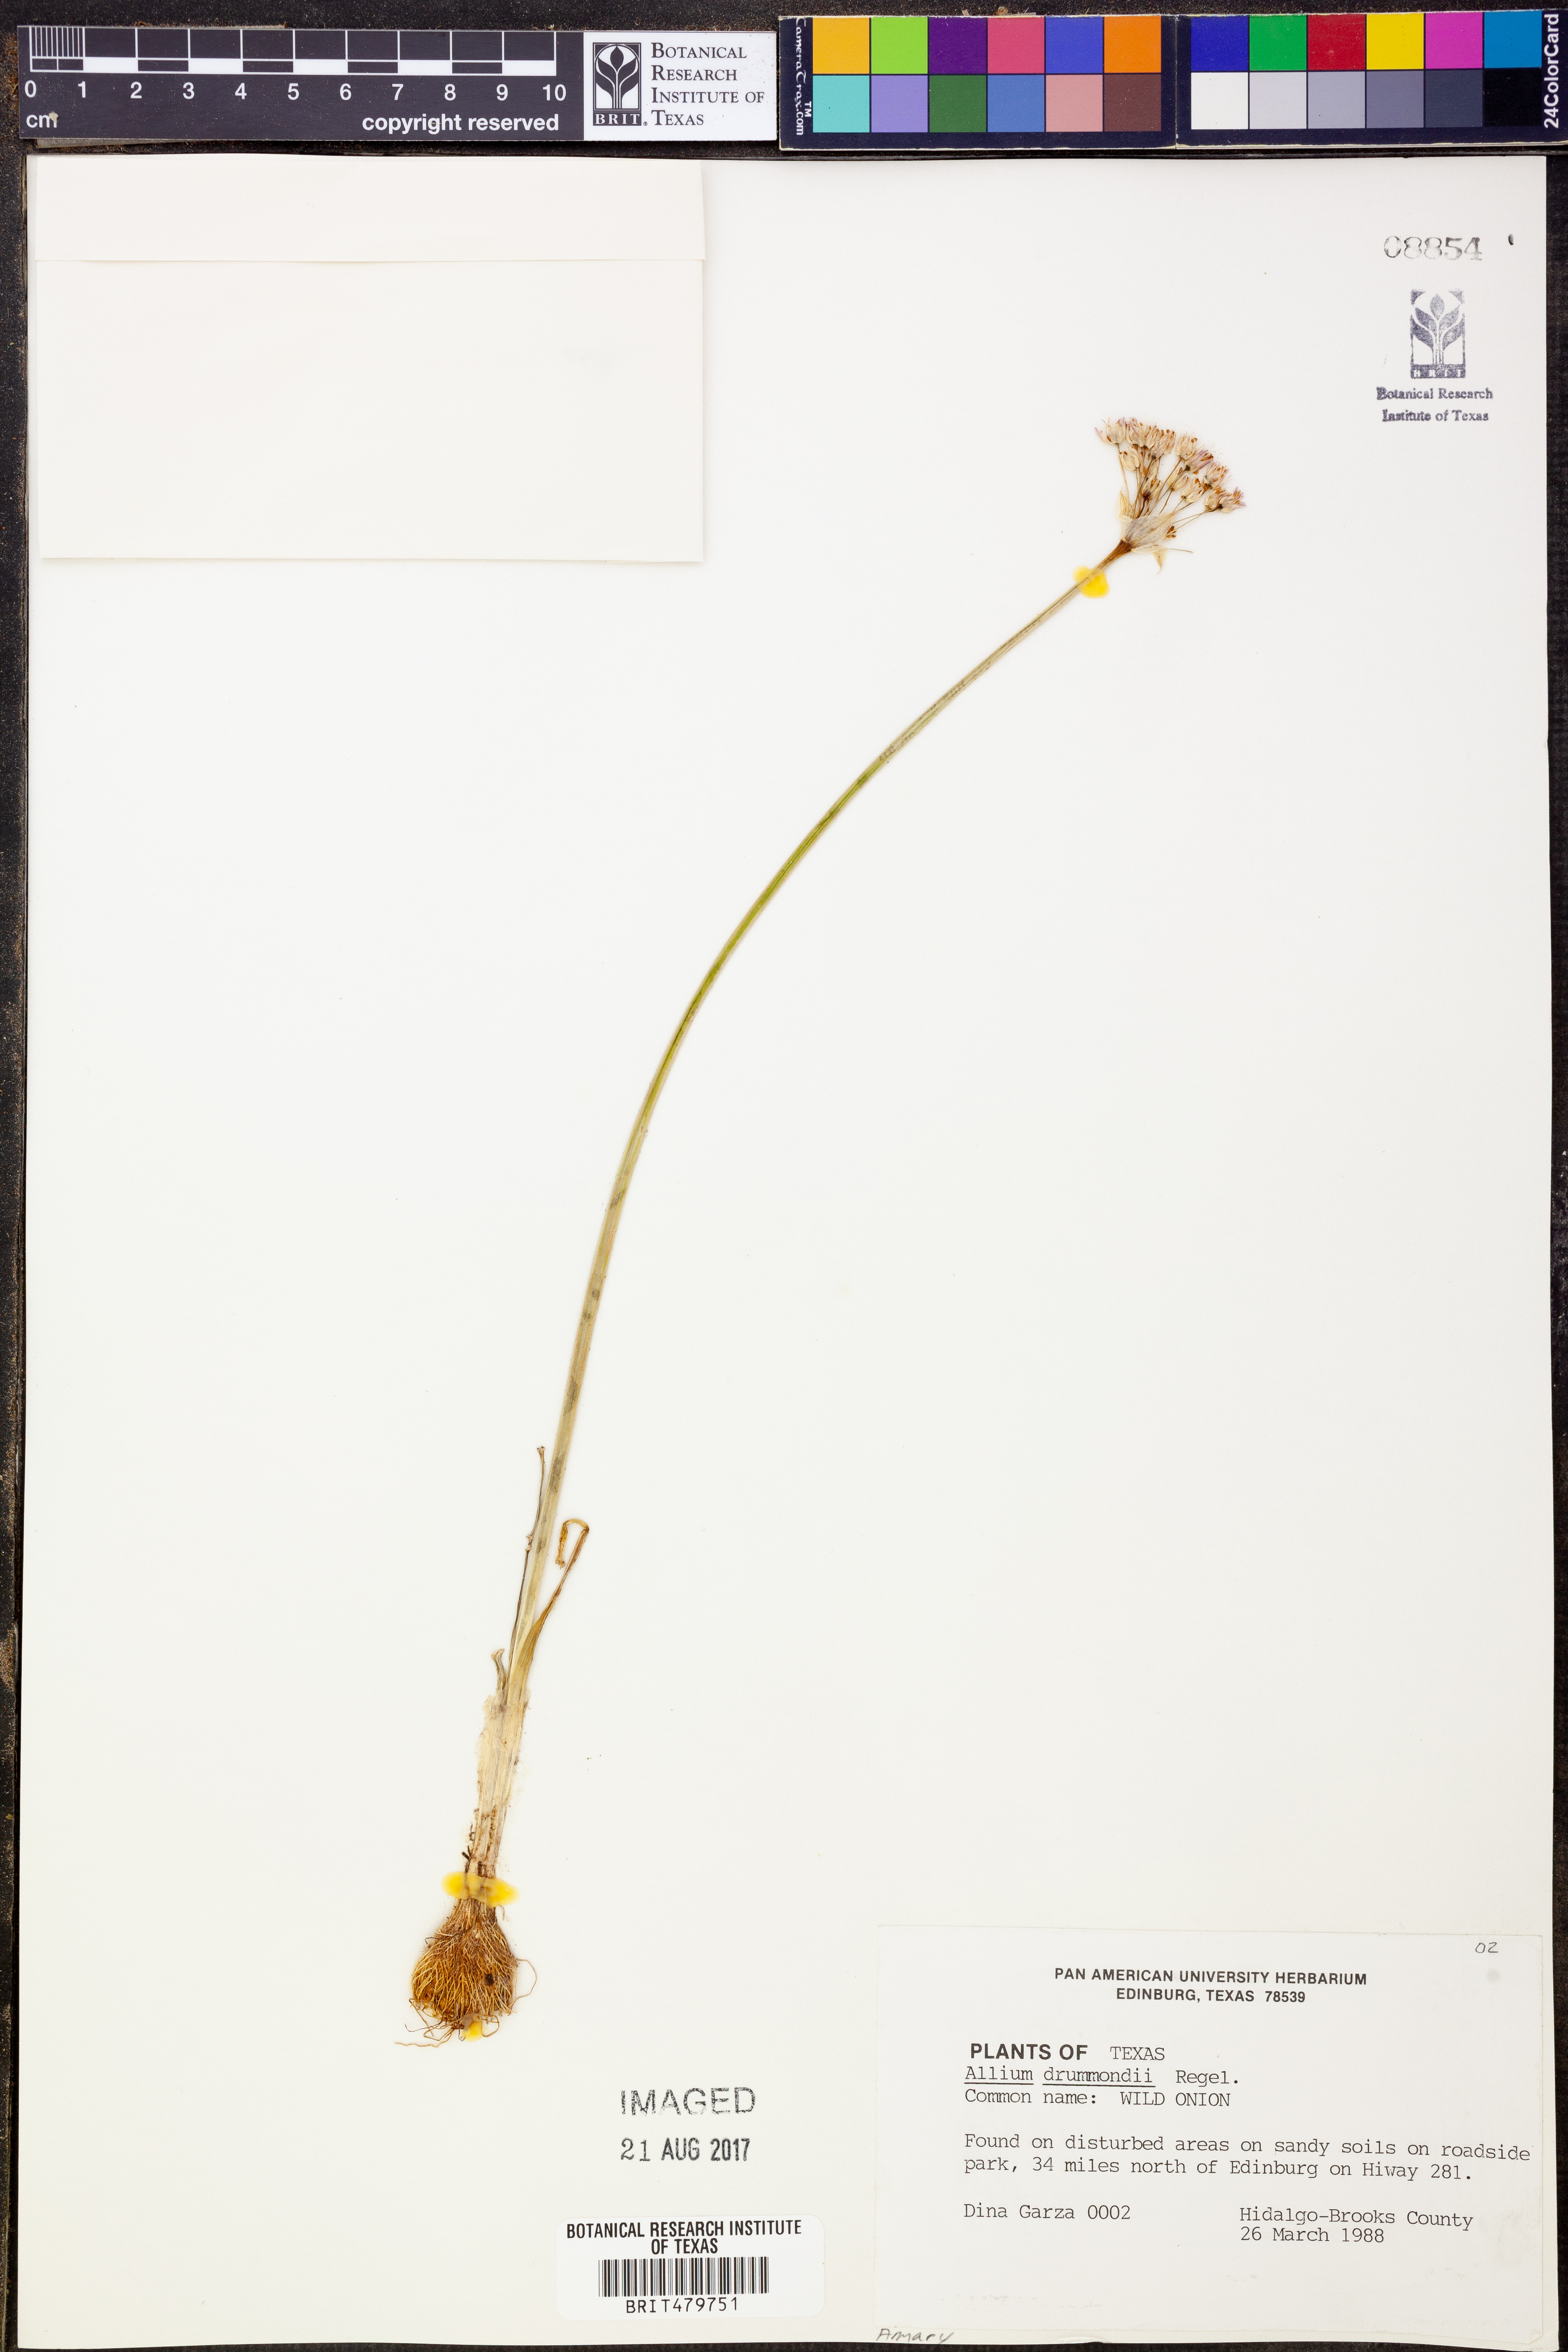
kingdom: Plantae
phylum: Tracheophyta
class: Liliopsida
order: Asparagales
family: Amaryllidaceae
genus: Allium
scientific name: Allium drummondii
